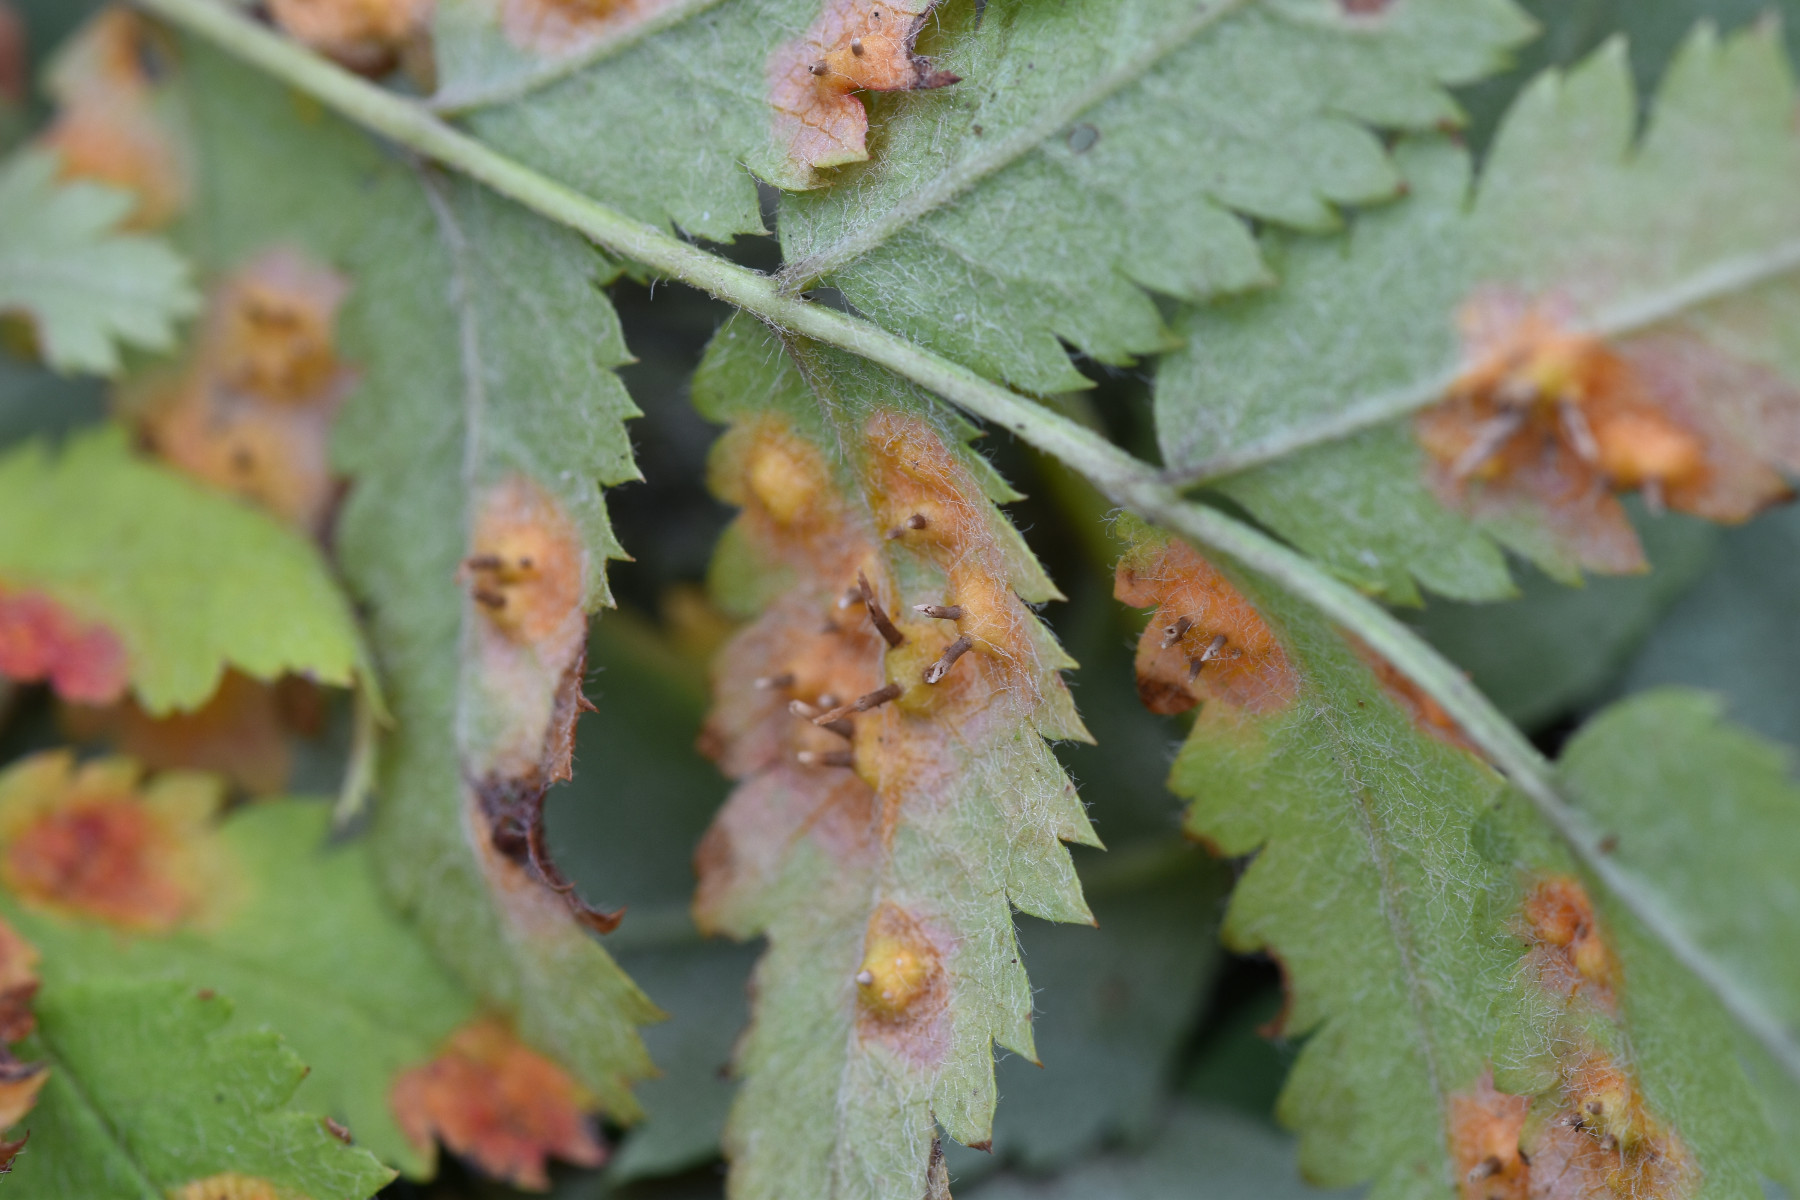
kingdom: Fungi
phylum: Basidiomycota
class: Pucciniomycetes
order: Pucciniales
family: Gymnosporangiaceae
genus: Gymnosporangium
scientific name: Gymnosporangium cornutum
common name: rønnehorn-bævrerust
